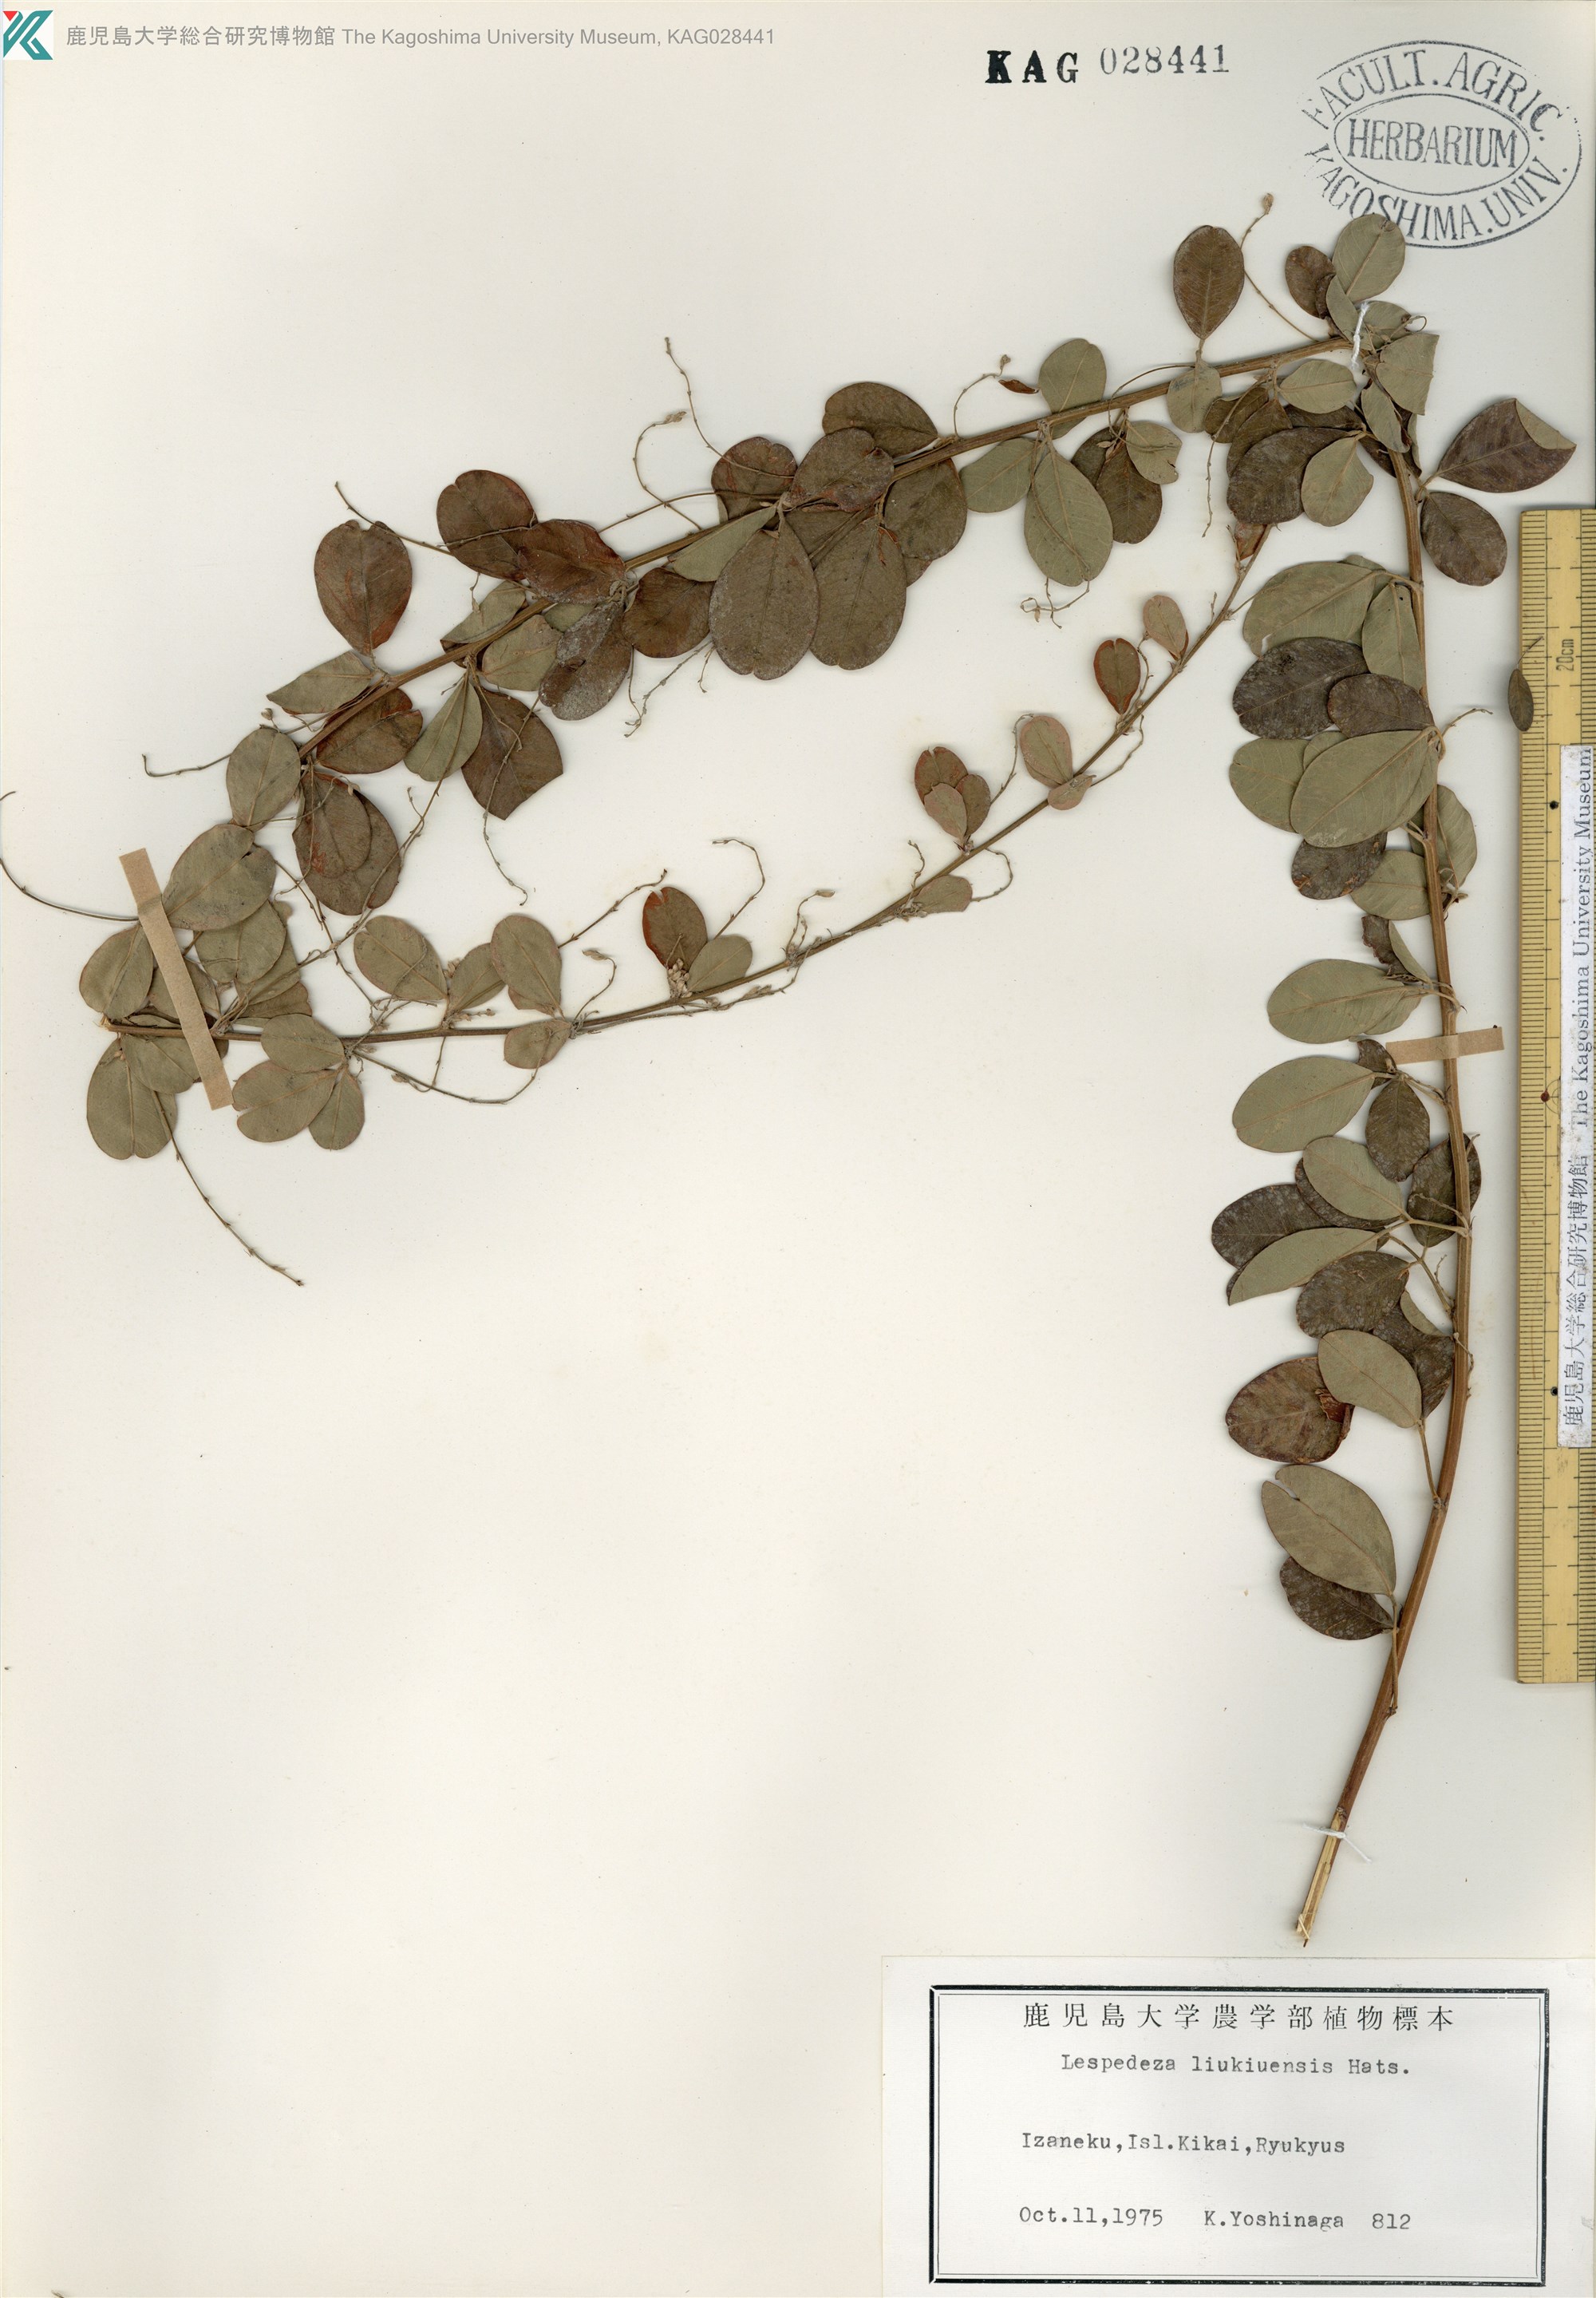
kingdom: Plantae
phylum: Tracheophyta
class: Magnoliopsida
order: Fabales
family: Fabaceae
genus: Lespedeza
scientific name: Lespedeza thunbergii
